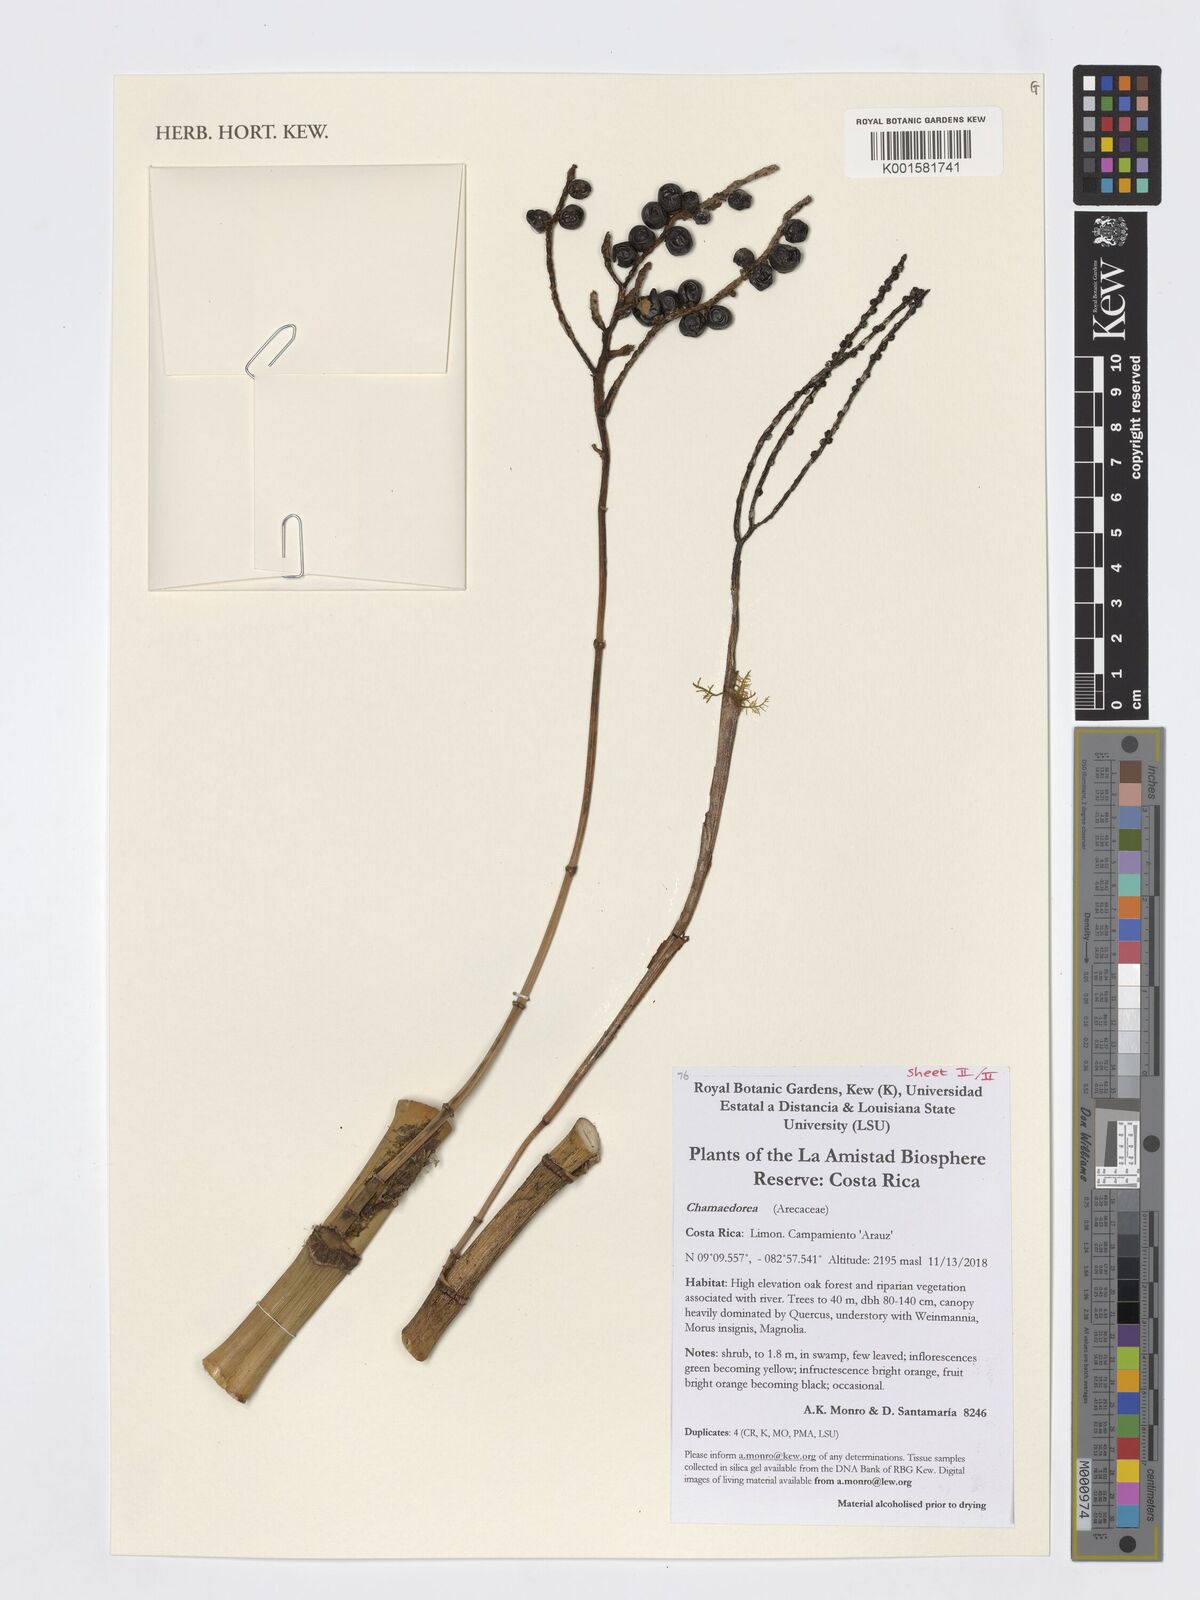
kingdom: Plantae
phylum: Tracheophyta
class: Liliopsida
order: Arecales
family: Arecaceae
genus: Chamaedorea
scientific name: Chamaedorea
